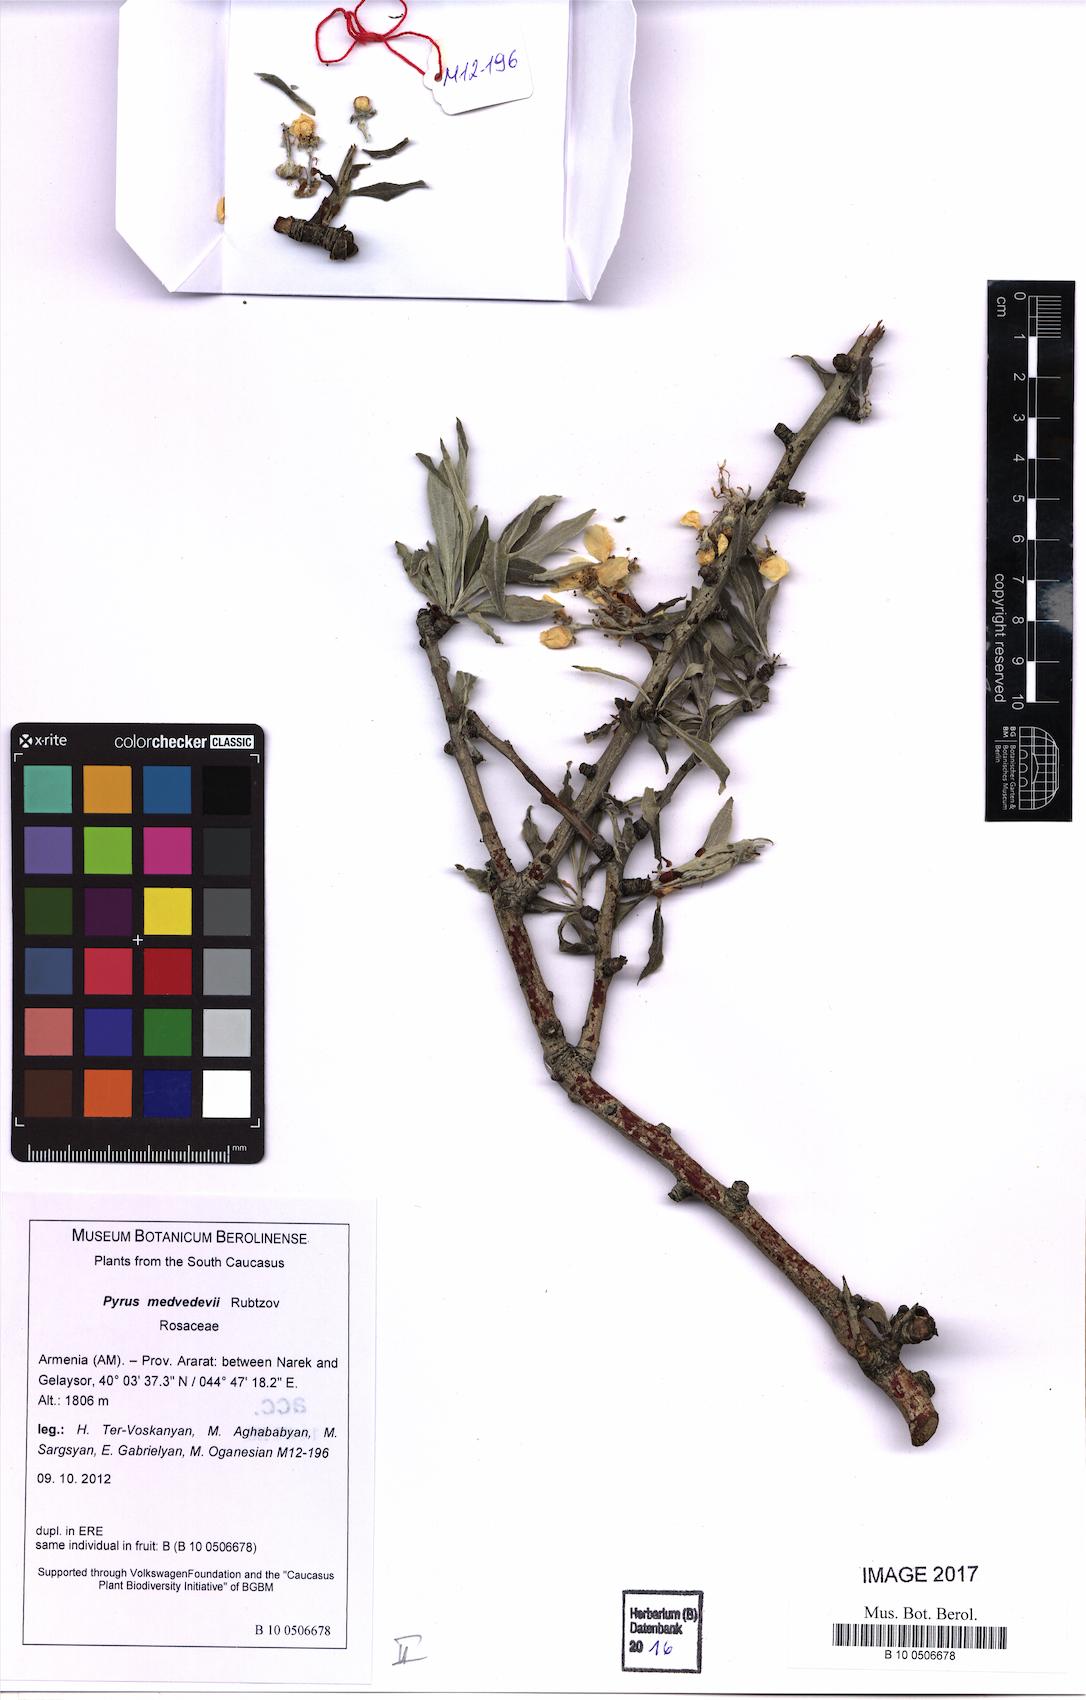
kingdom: Plantae
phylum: Tracheophyta
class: Magnoliopsida
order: Rosales
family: Rosaceae
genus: Pyrus
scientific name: Pyrus medvedevii
